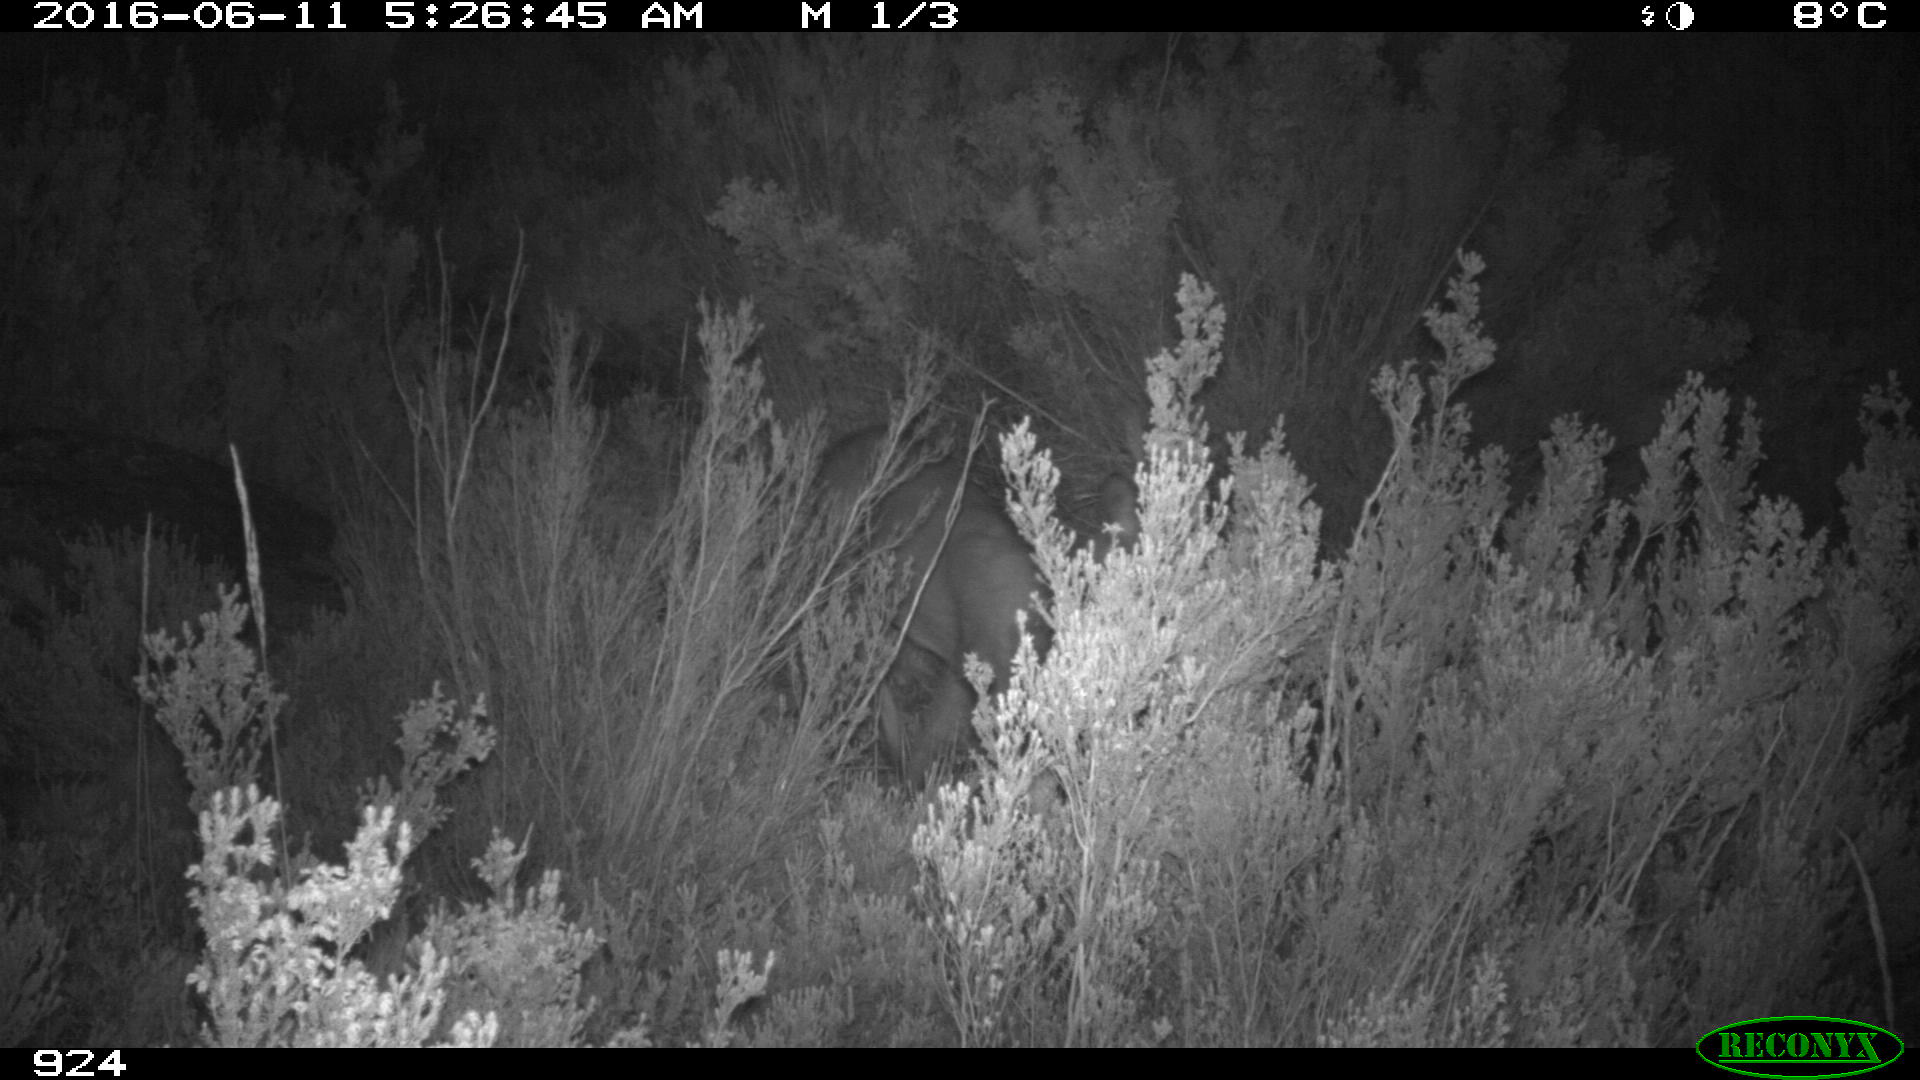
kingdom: Animalia
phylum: Chordata
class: Mammalia
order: Artiodactyla
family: Cervidae
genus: Capreolus
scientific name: Capreolus capreolus
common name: Western roe deer
